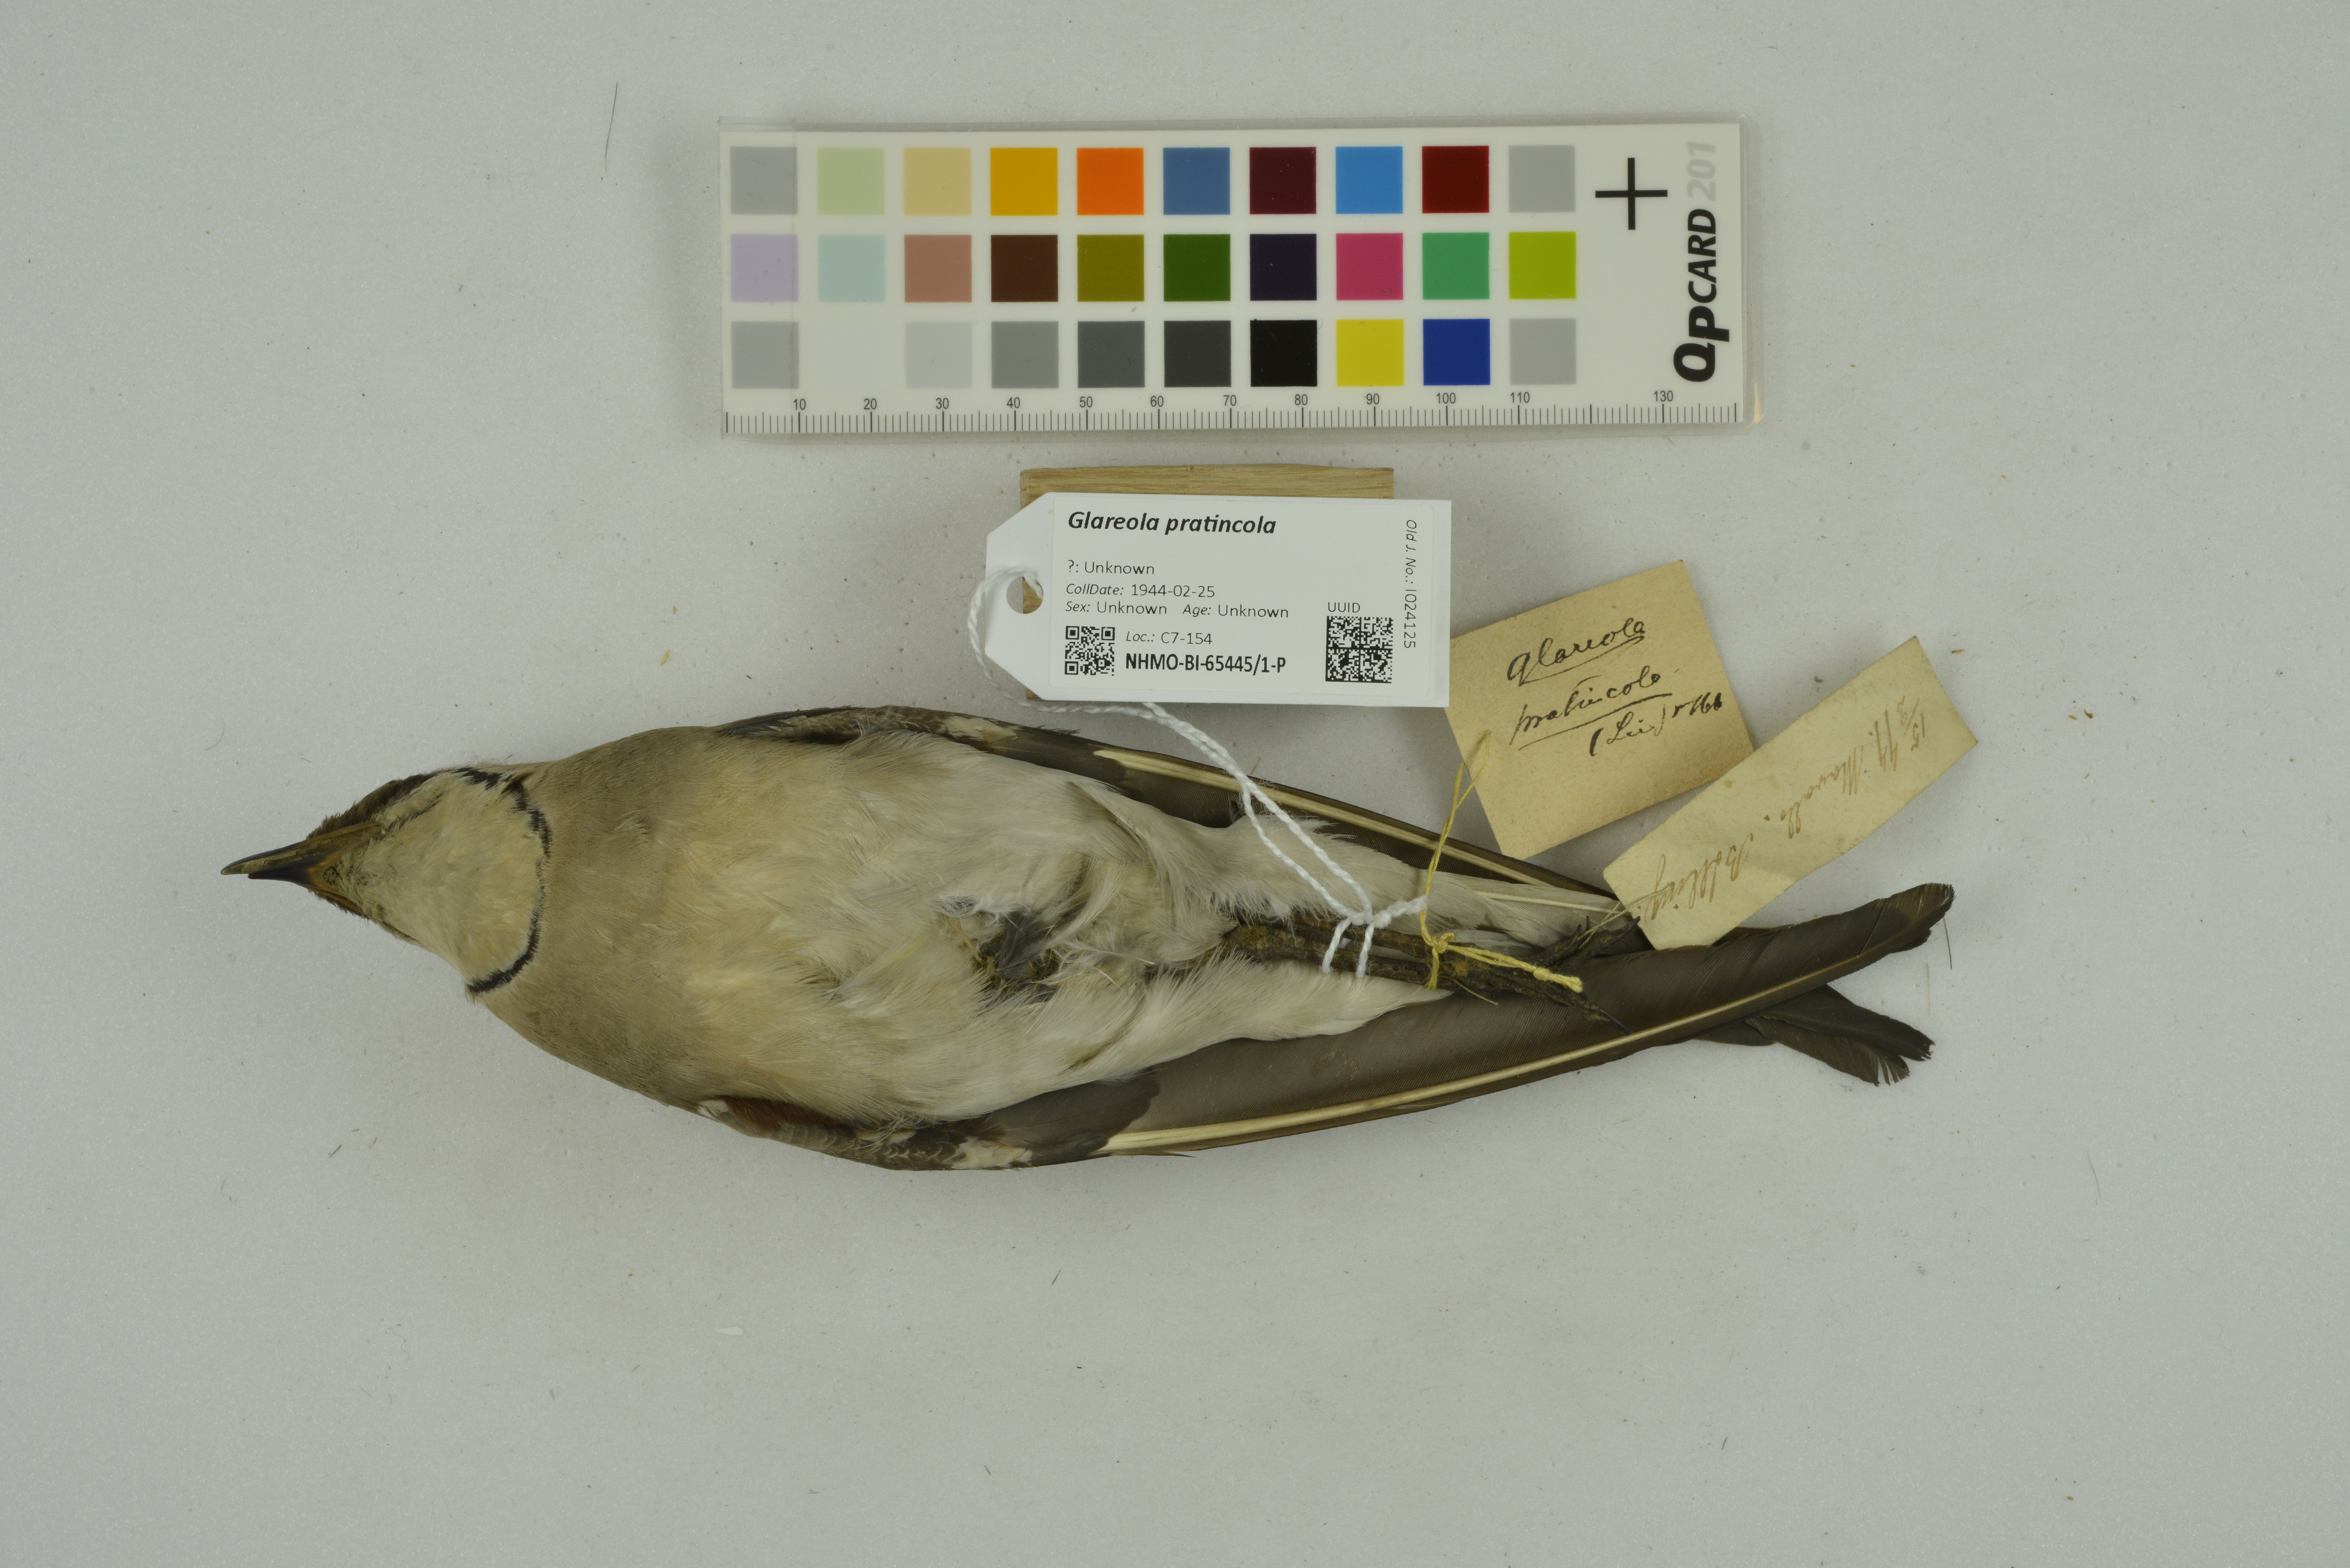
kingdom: Animalia
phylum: Chordata
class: Aves
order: Charadriiformes
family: Glareolidae
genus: Glareola
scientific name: Glareola pratincola
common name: Collared pratincole
